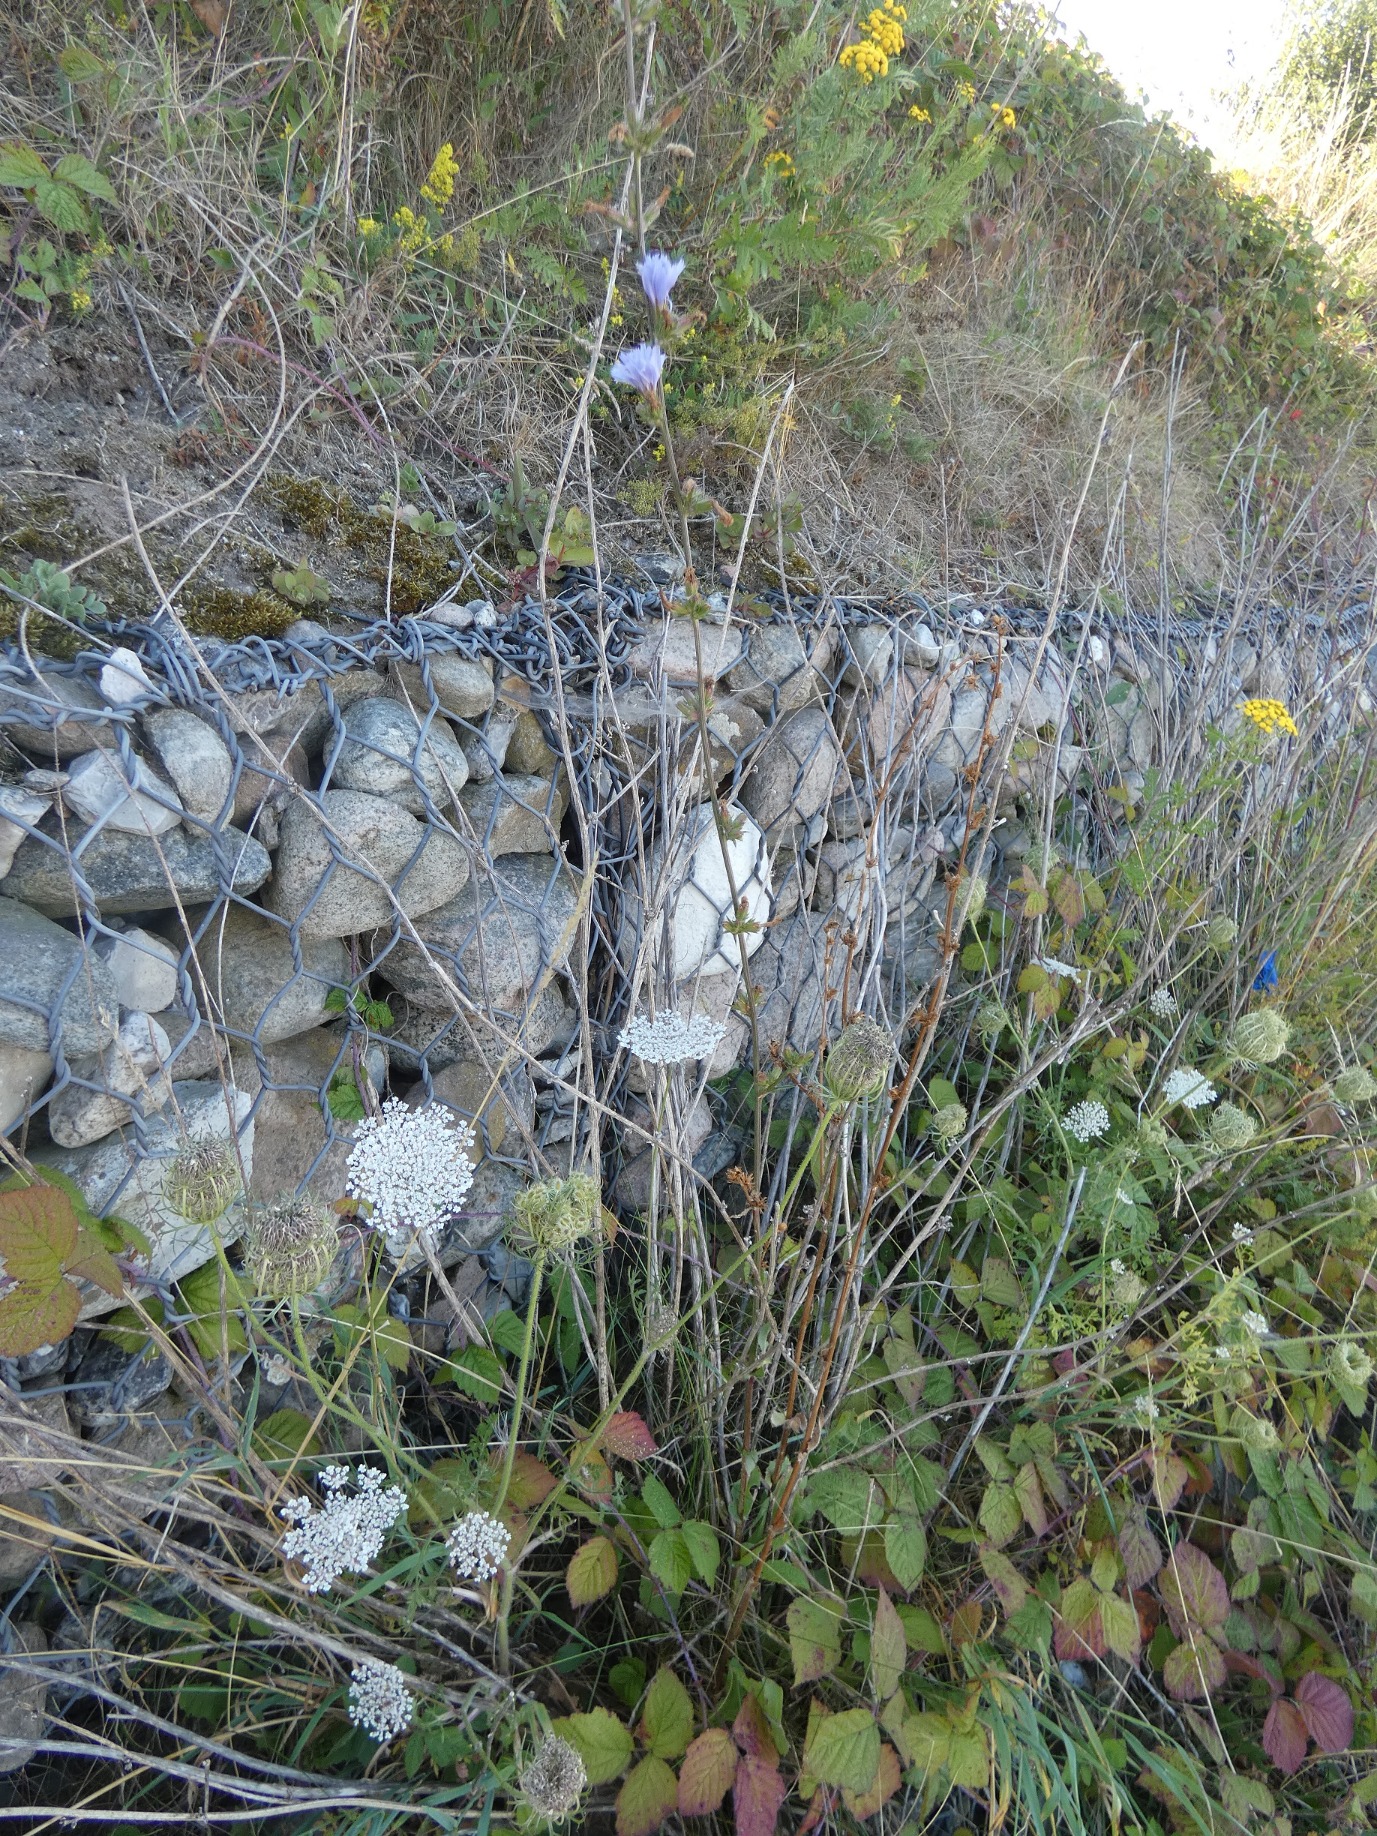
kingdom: Plantae
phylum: Tracheophyta
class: Magnoliopsida
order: Asterales
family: Asteraceae
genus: Cichorium
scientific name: Cichorium intybus
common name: Cikorie
